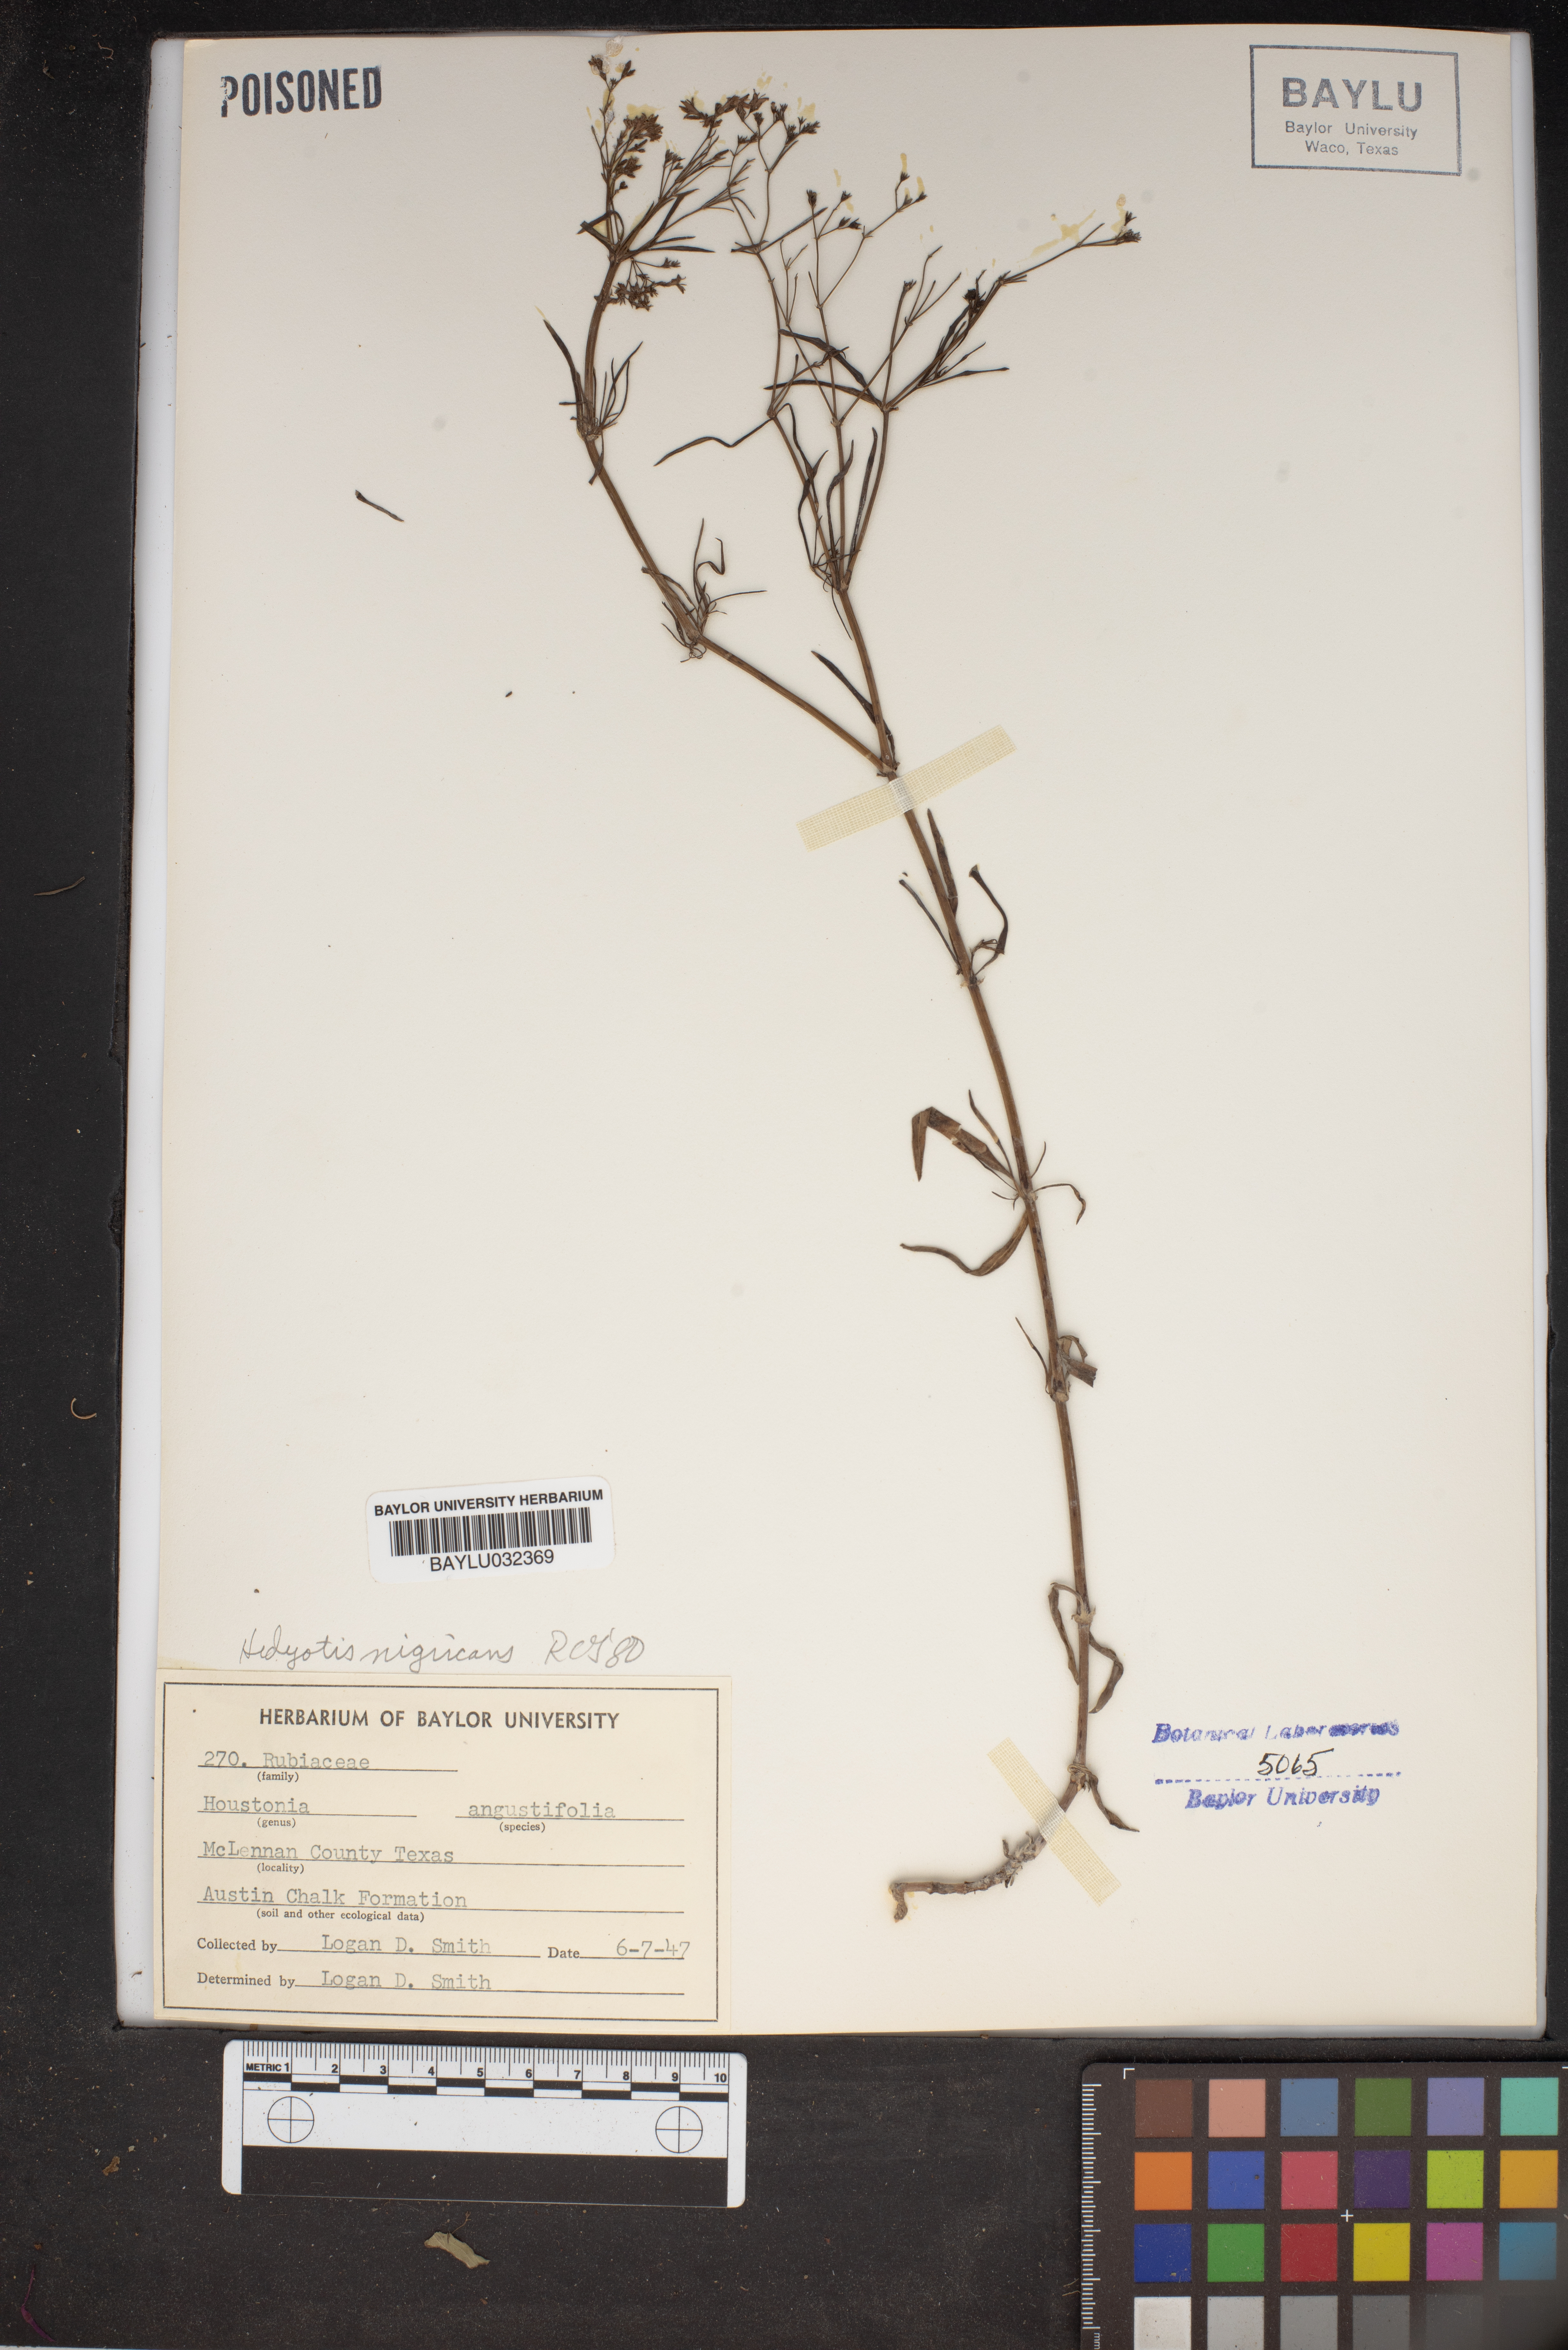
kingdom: Plantae
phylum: Tracheophyta
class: Magnoliopsida
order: Gentianales
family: Rubiaceae
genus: Stenaria
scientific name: Stenaria nigricans
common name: Diamondflowers
